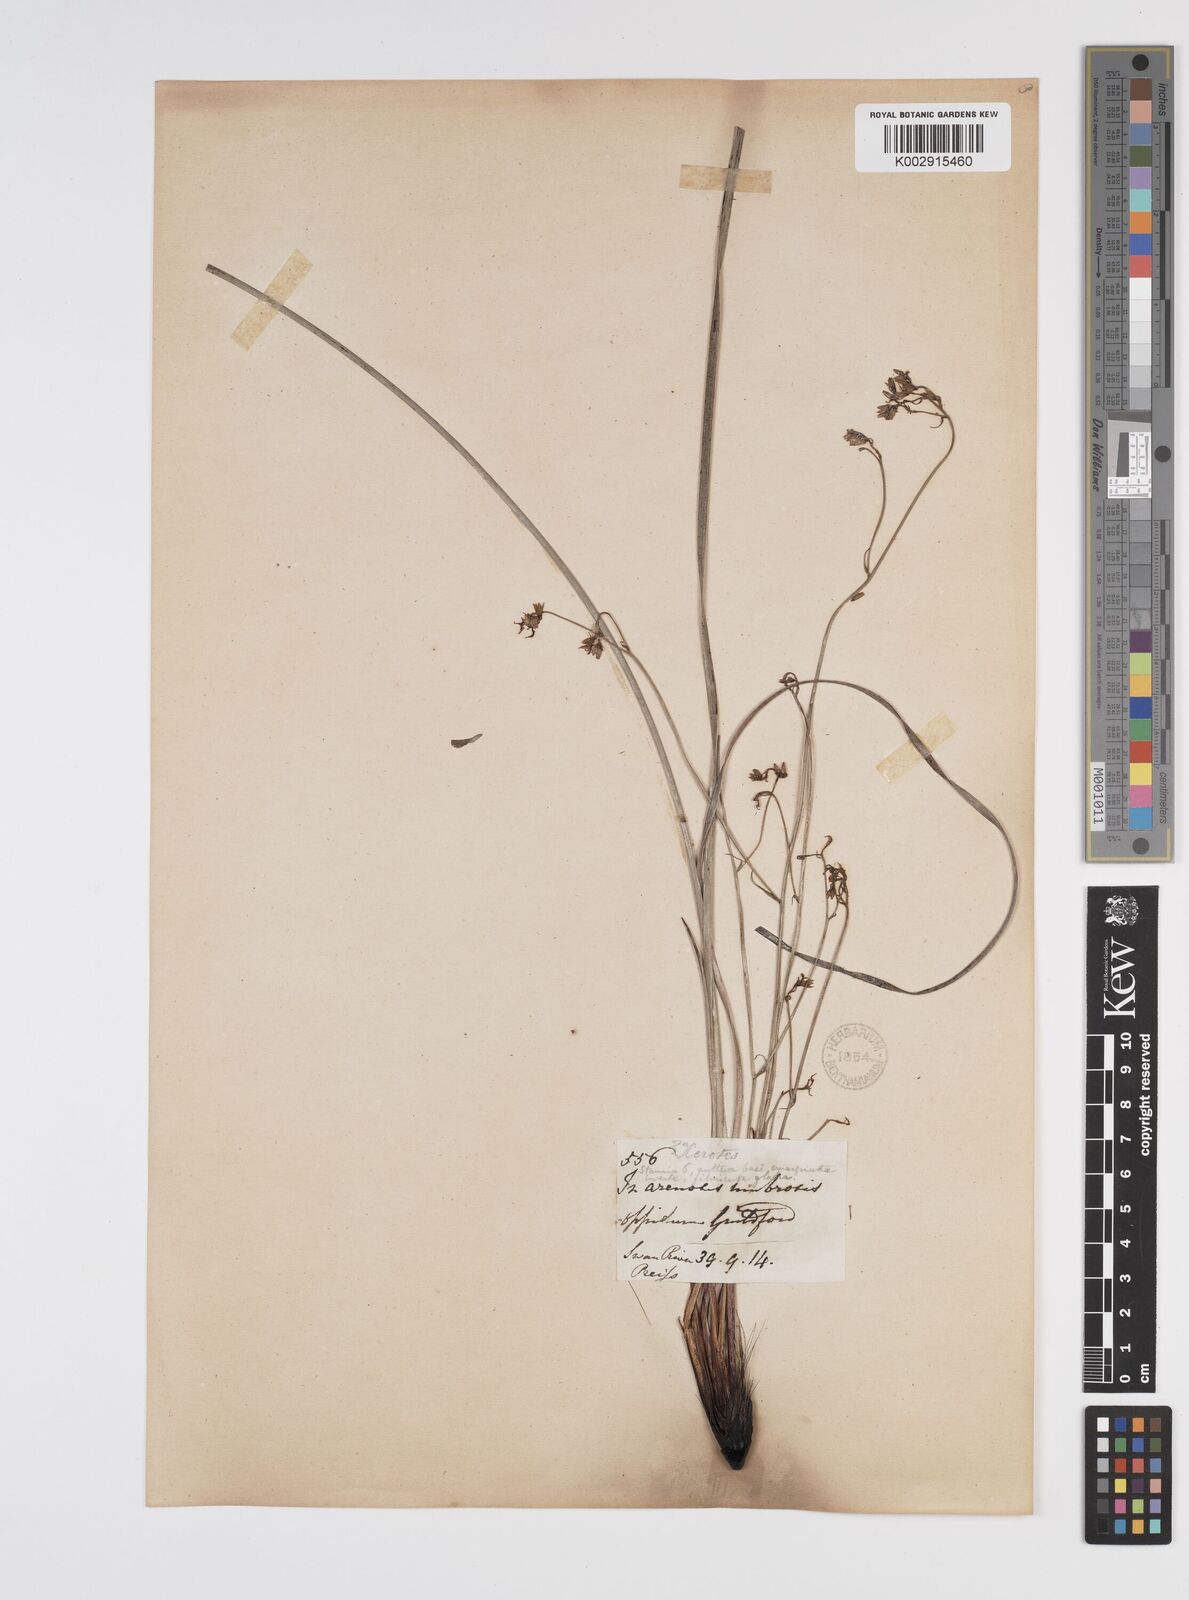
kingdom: Plantae
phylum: Tracheophyta
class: Liliopsida
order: Commelinales
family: Haemodoraceae
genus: Phlebocarya
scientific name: Phlebocarya filifolia
